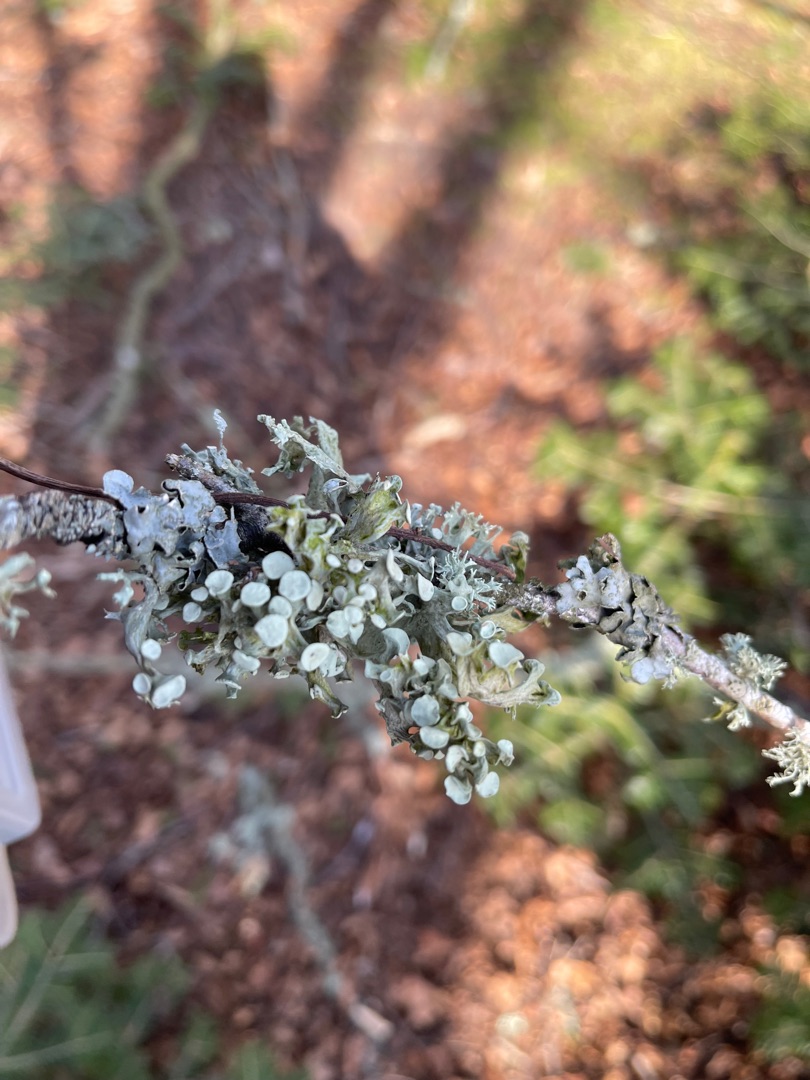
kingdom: Fungi
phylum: Ascomycota
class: Lecanoromycetes
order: Lecanorales
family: Ramalinaceae
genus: Ramalina
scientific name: Ramalina fastigiata
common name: Tue-grenlav
